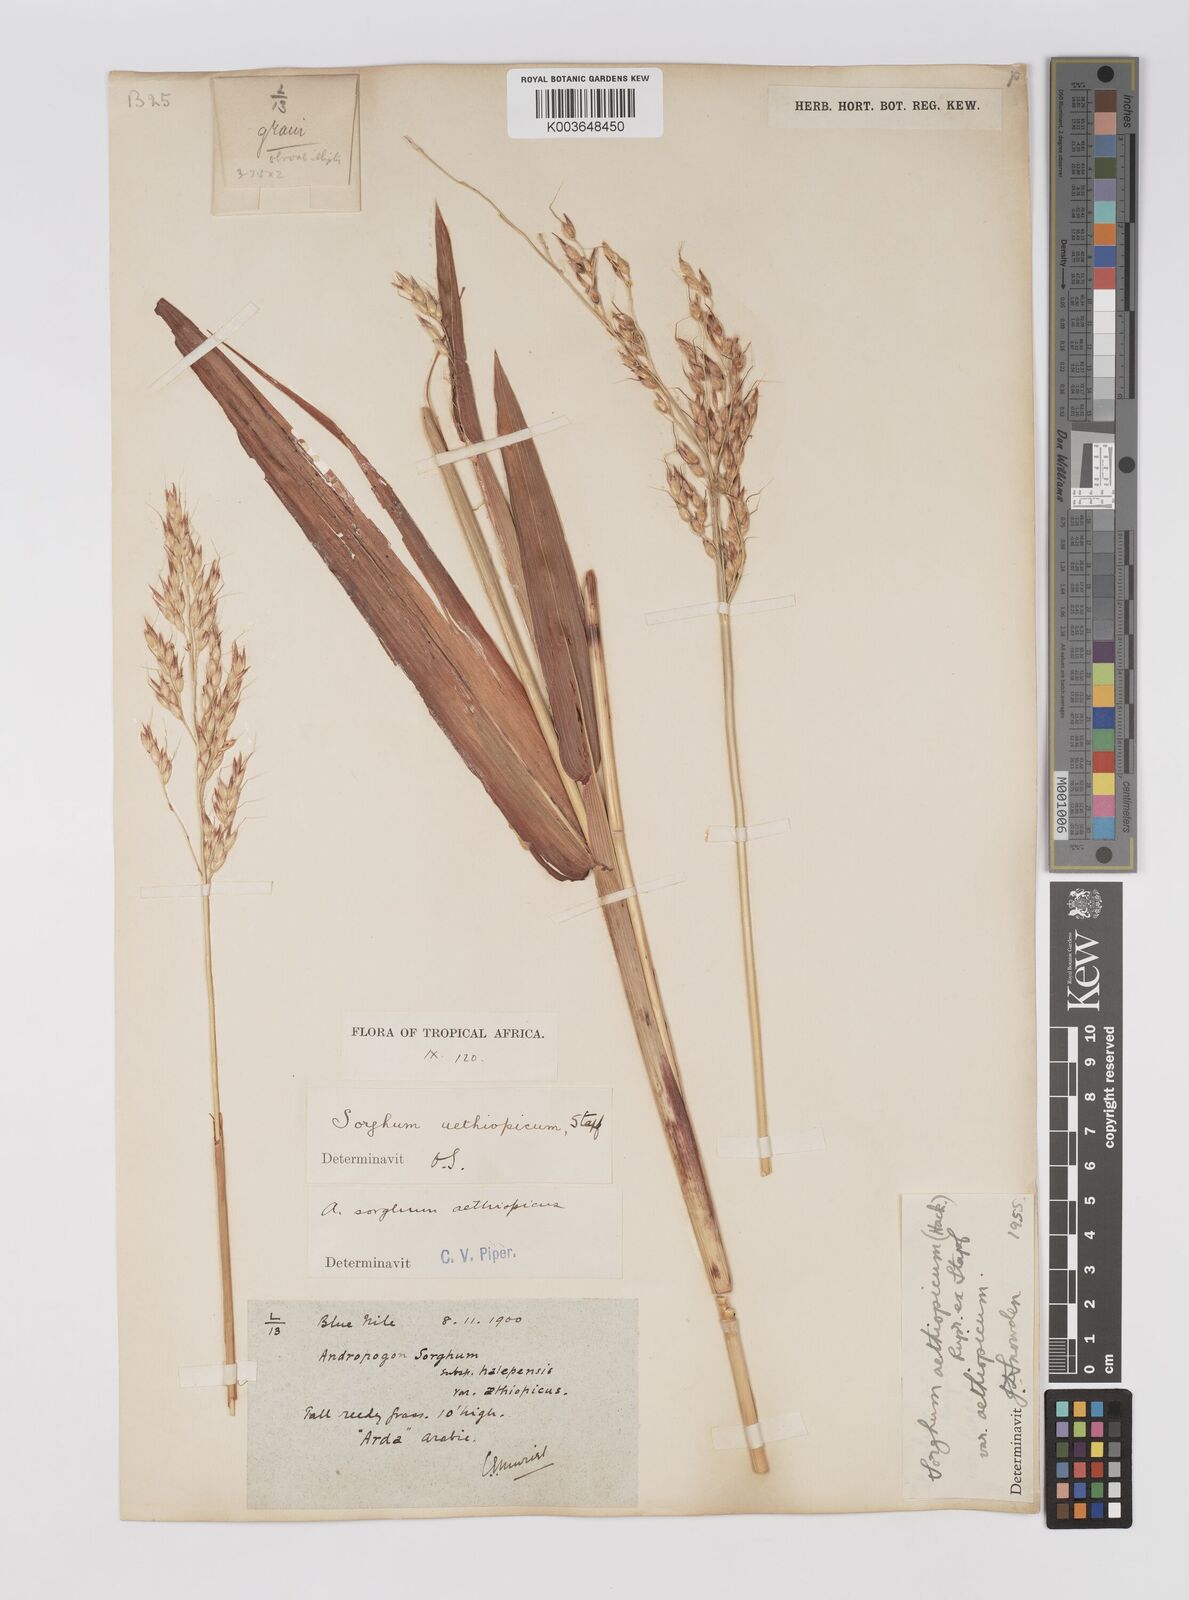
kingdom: Plantae
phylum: Tracheophyta
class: Liliopsida
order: Poales
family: Poaceae
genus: Sorghum
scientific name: Sorghum arundinaceum
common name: Sorghum
